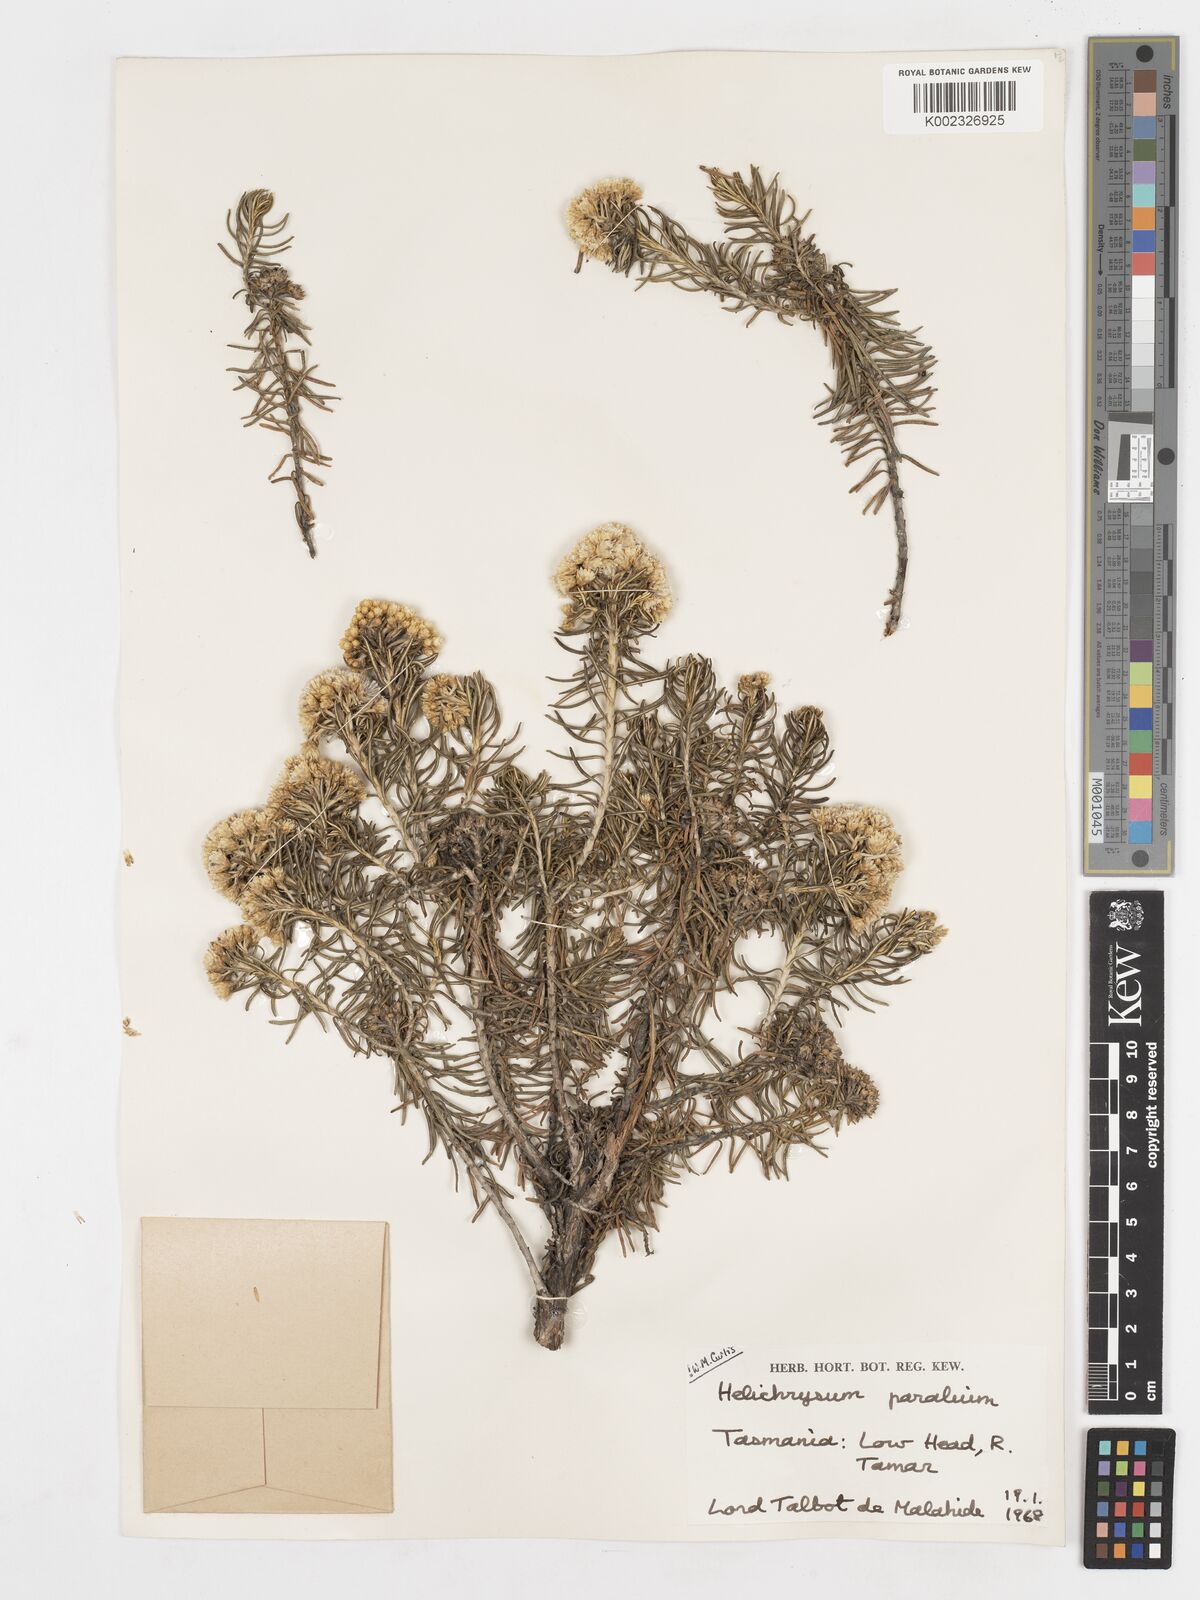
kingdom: Plantae
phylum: Tracheophyta
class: Magnoliopsida
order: Asterales
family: Asteraceae
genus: Ozothamnus
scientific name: Ozothamnus cinereus
